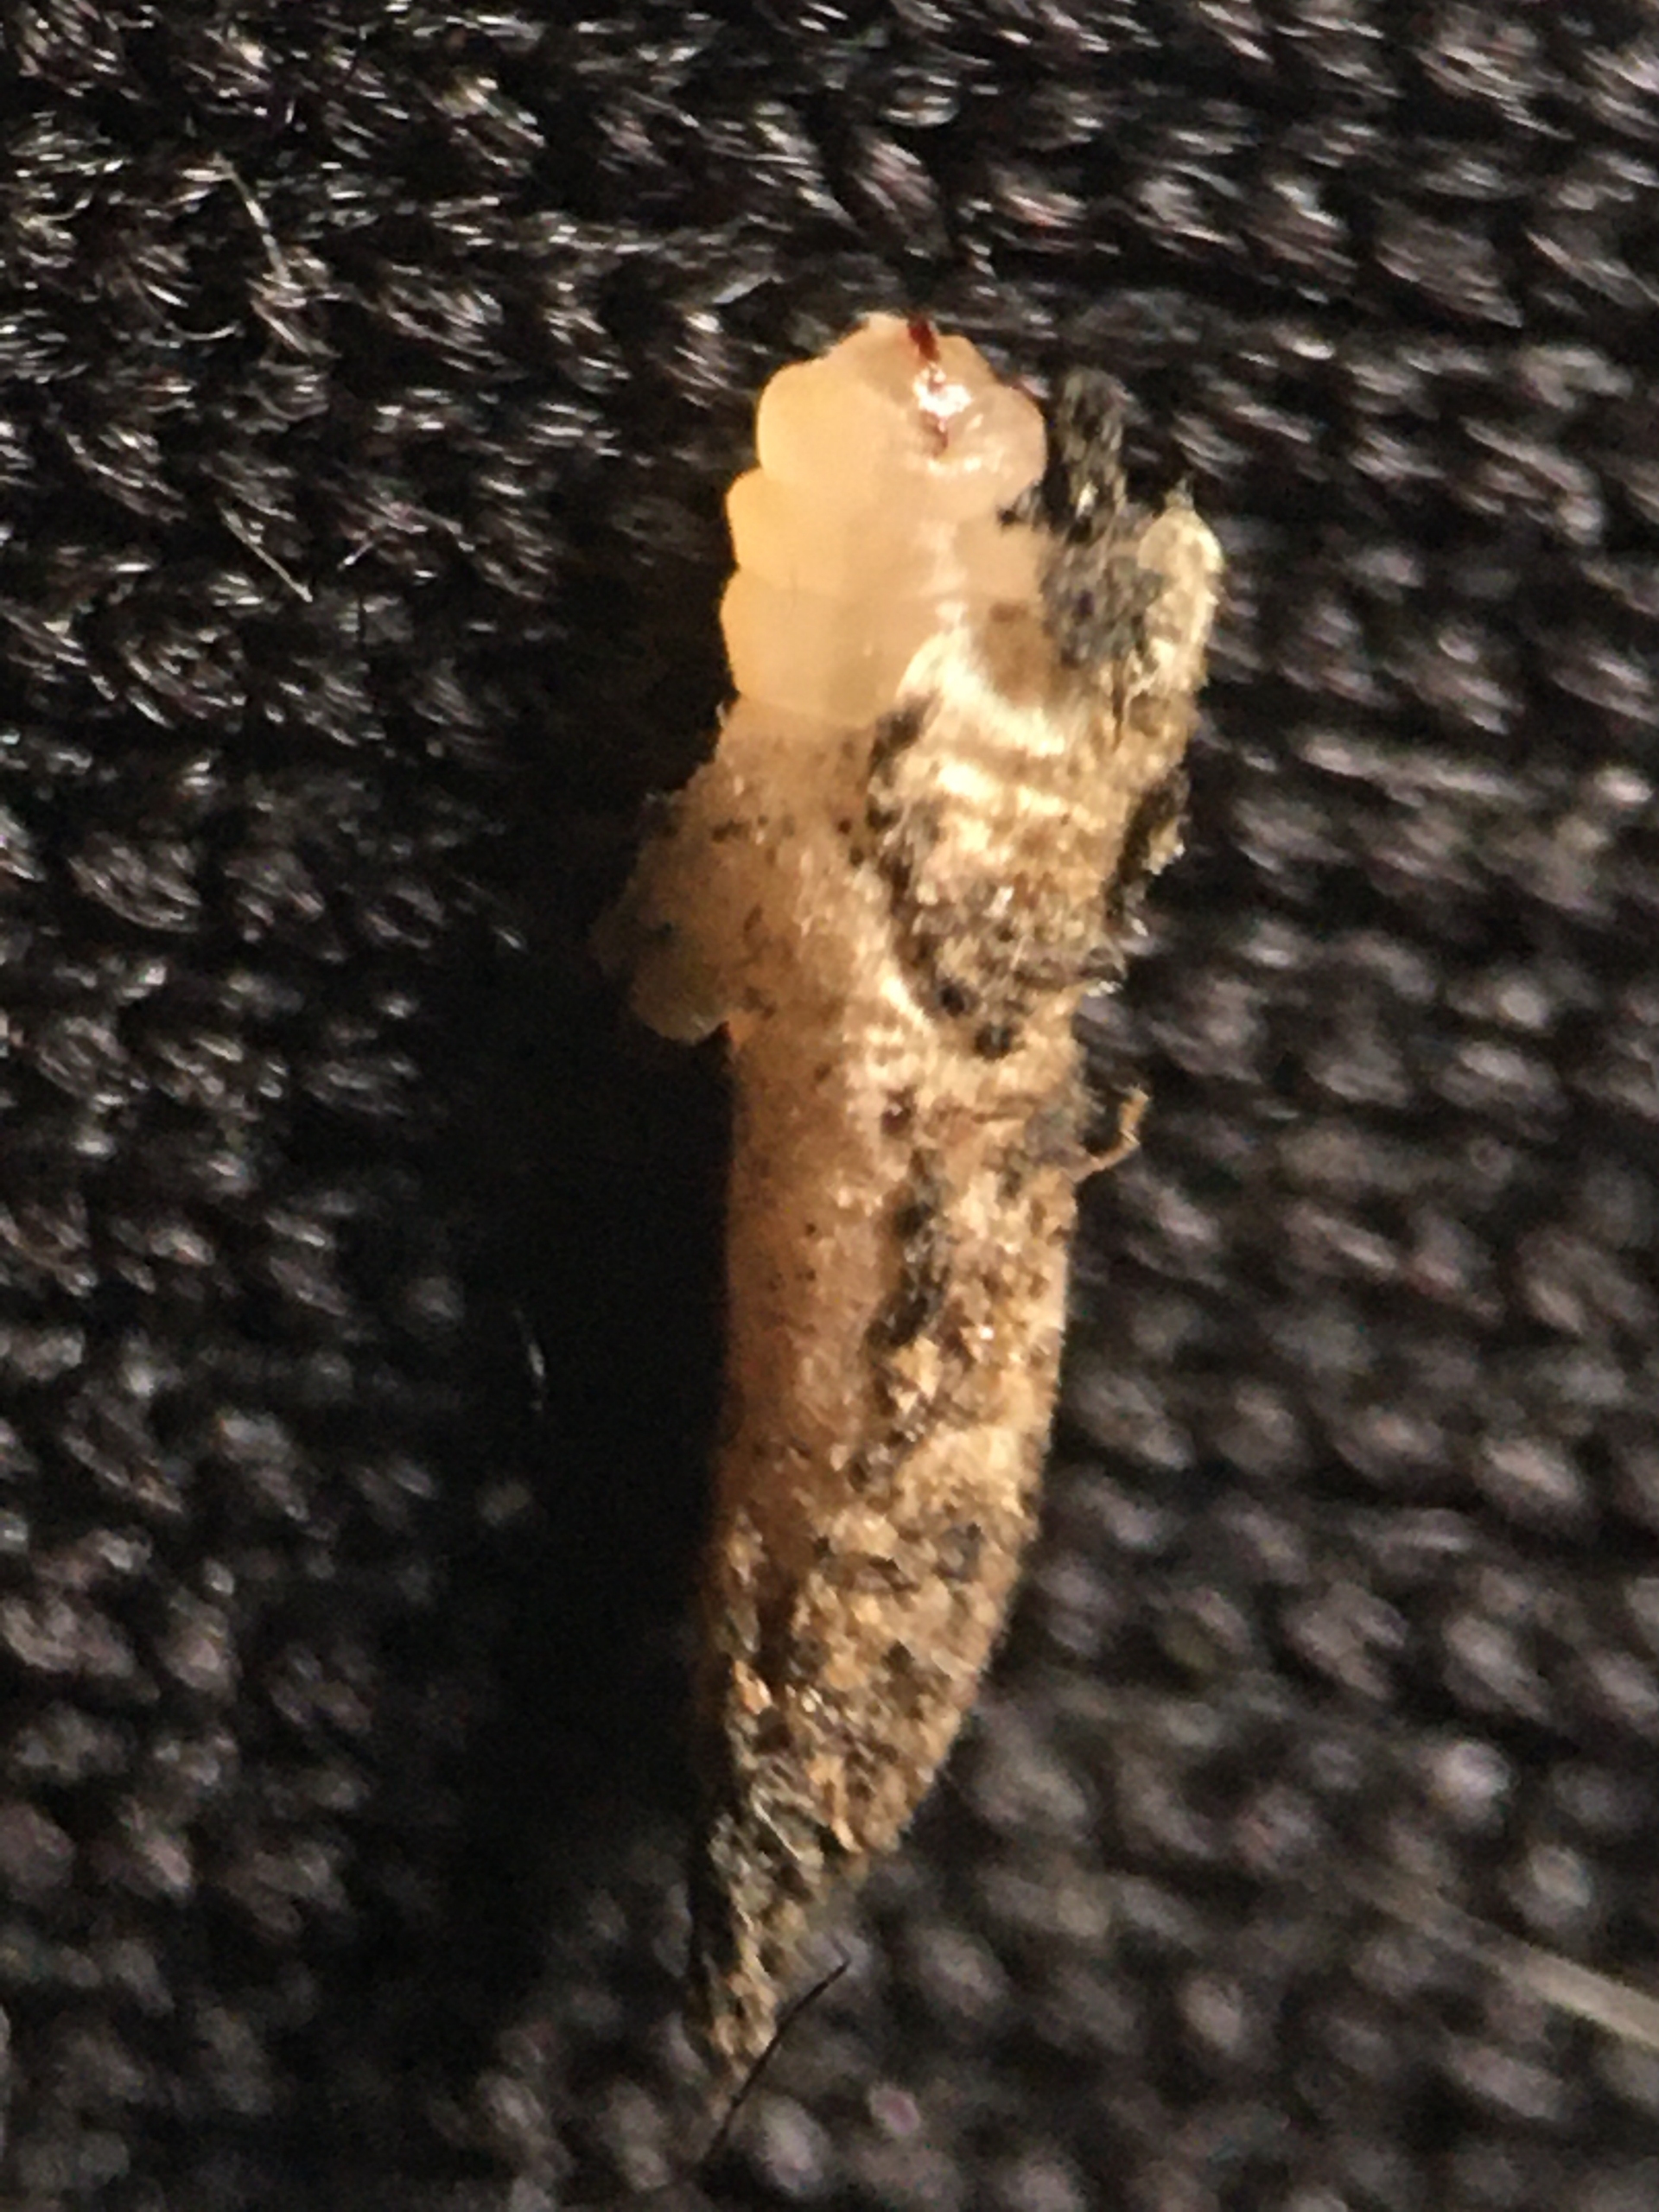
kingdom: Animalia
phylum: Arthropoda
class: Insecta
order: Diptera
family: Cecidomyiidae
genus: Lasioptera
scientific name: Lasioptera arundinis
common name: Tagrørsmycelgalmyg
